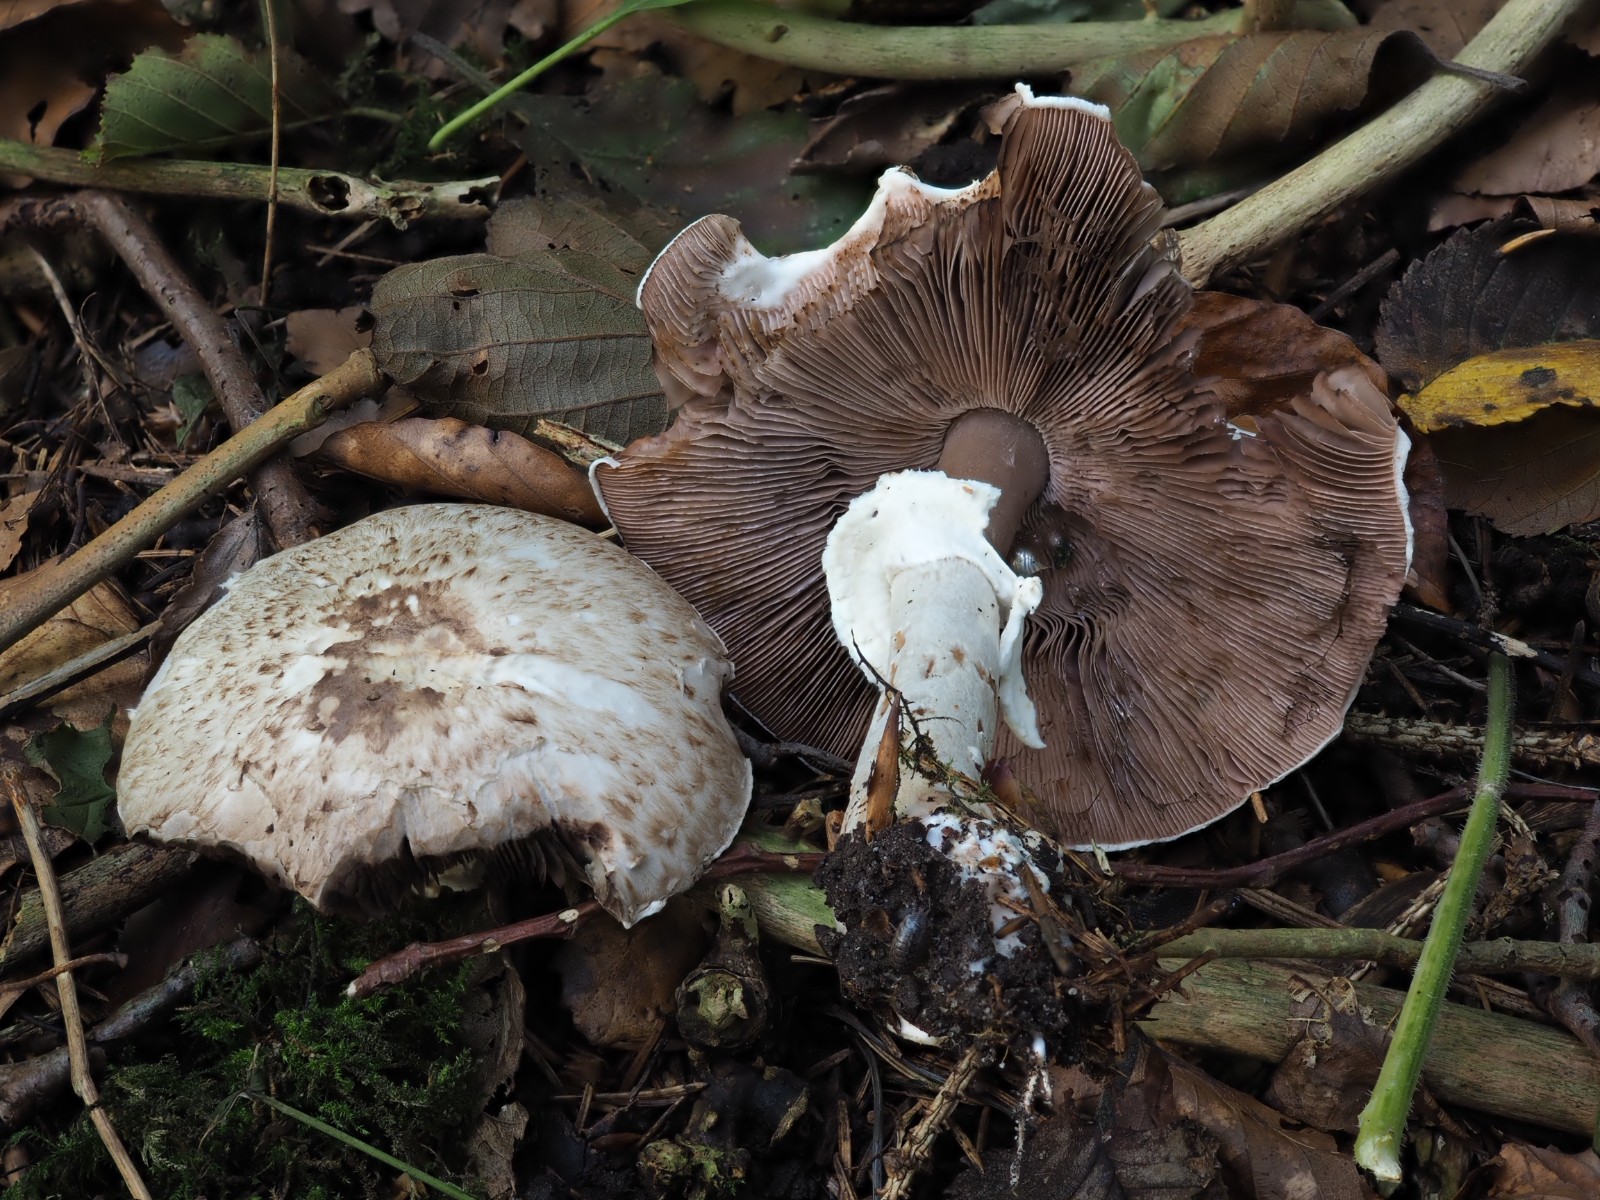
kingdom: Fungi
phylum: Basidiomycota
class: Agaricomycetes
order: Agaricales
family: Agaricaceae
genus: Agaricus
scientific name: Agaricus
